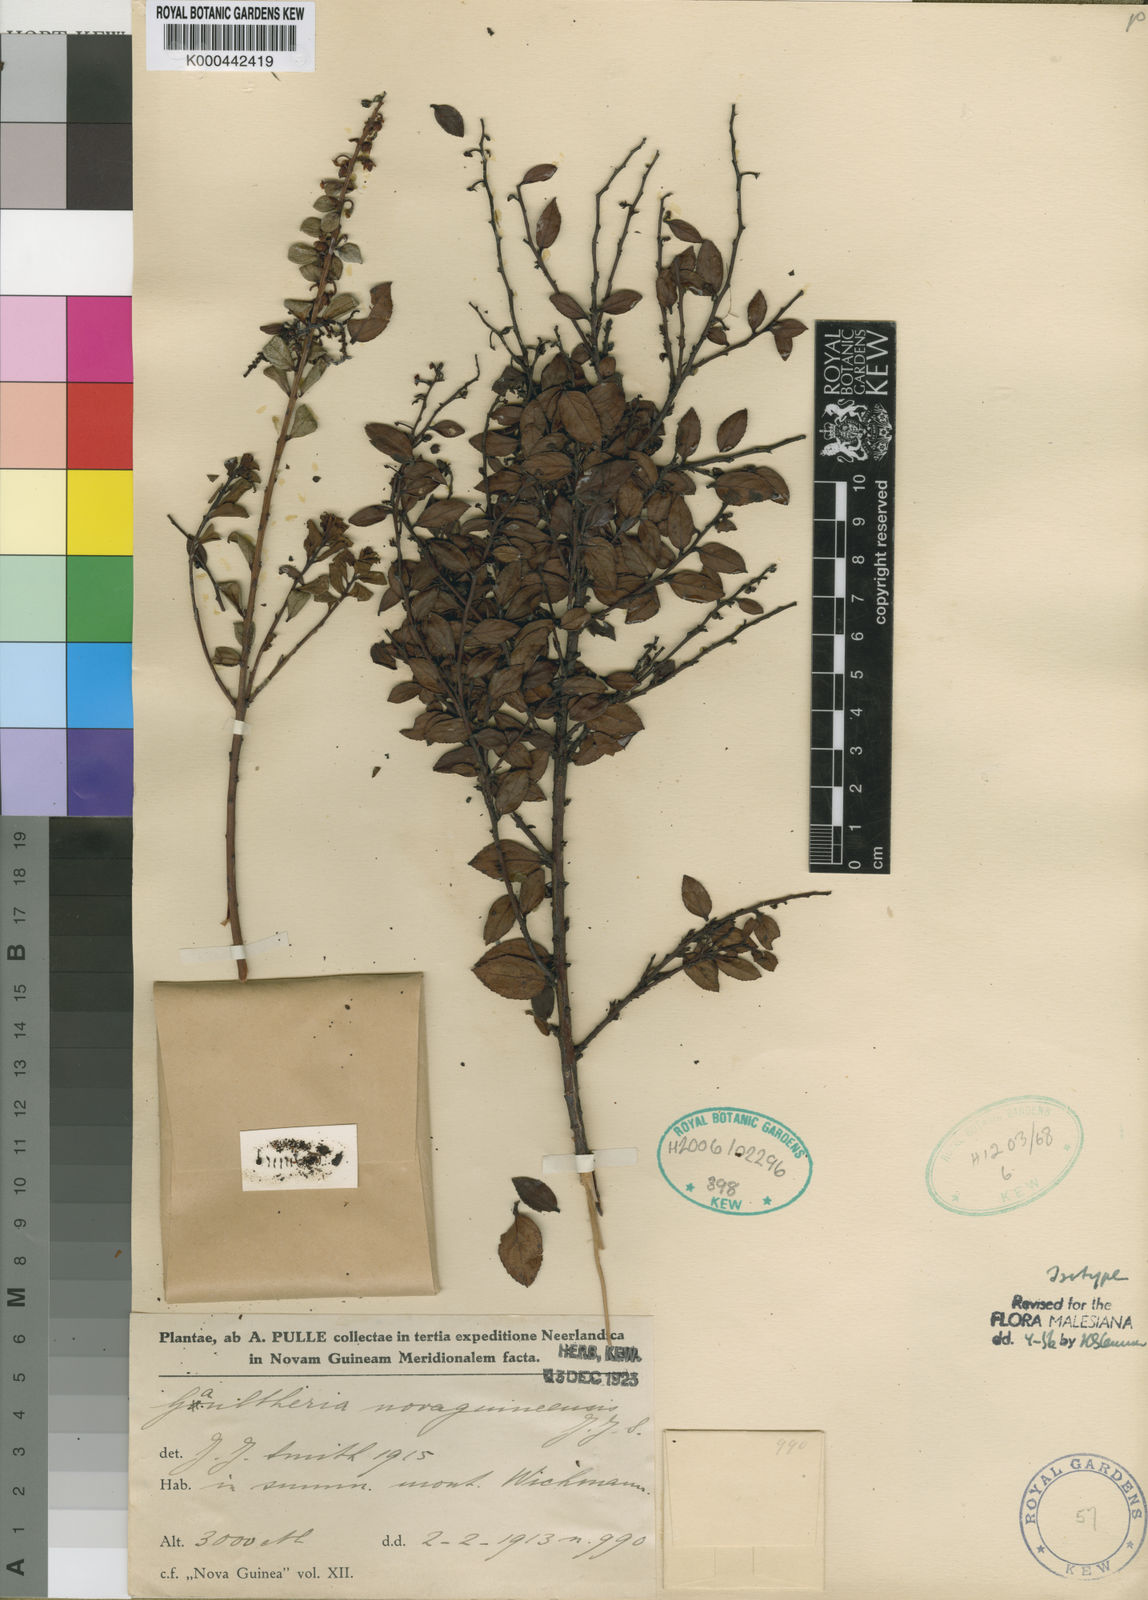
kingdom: Plantae
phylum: Tracheophyta
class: Magnoliopsida
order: Ericales
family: Ericaceae
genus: Gaultheria
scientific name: Gaultheria novaguineensis
